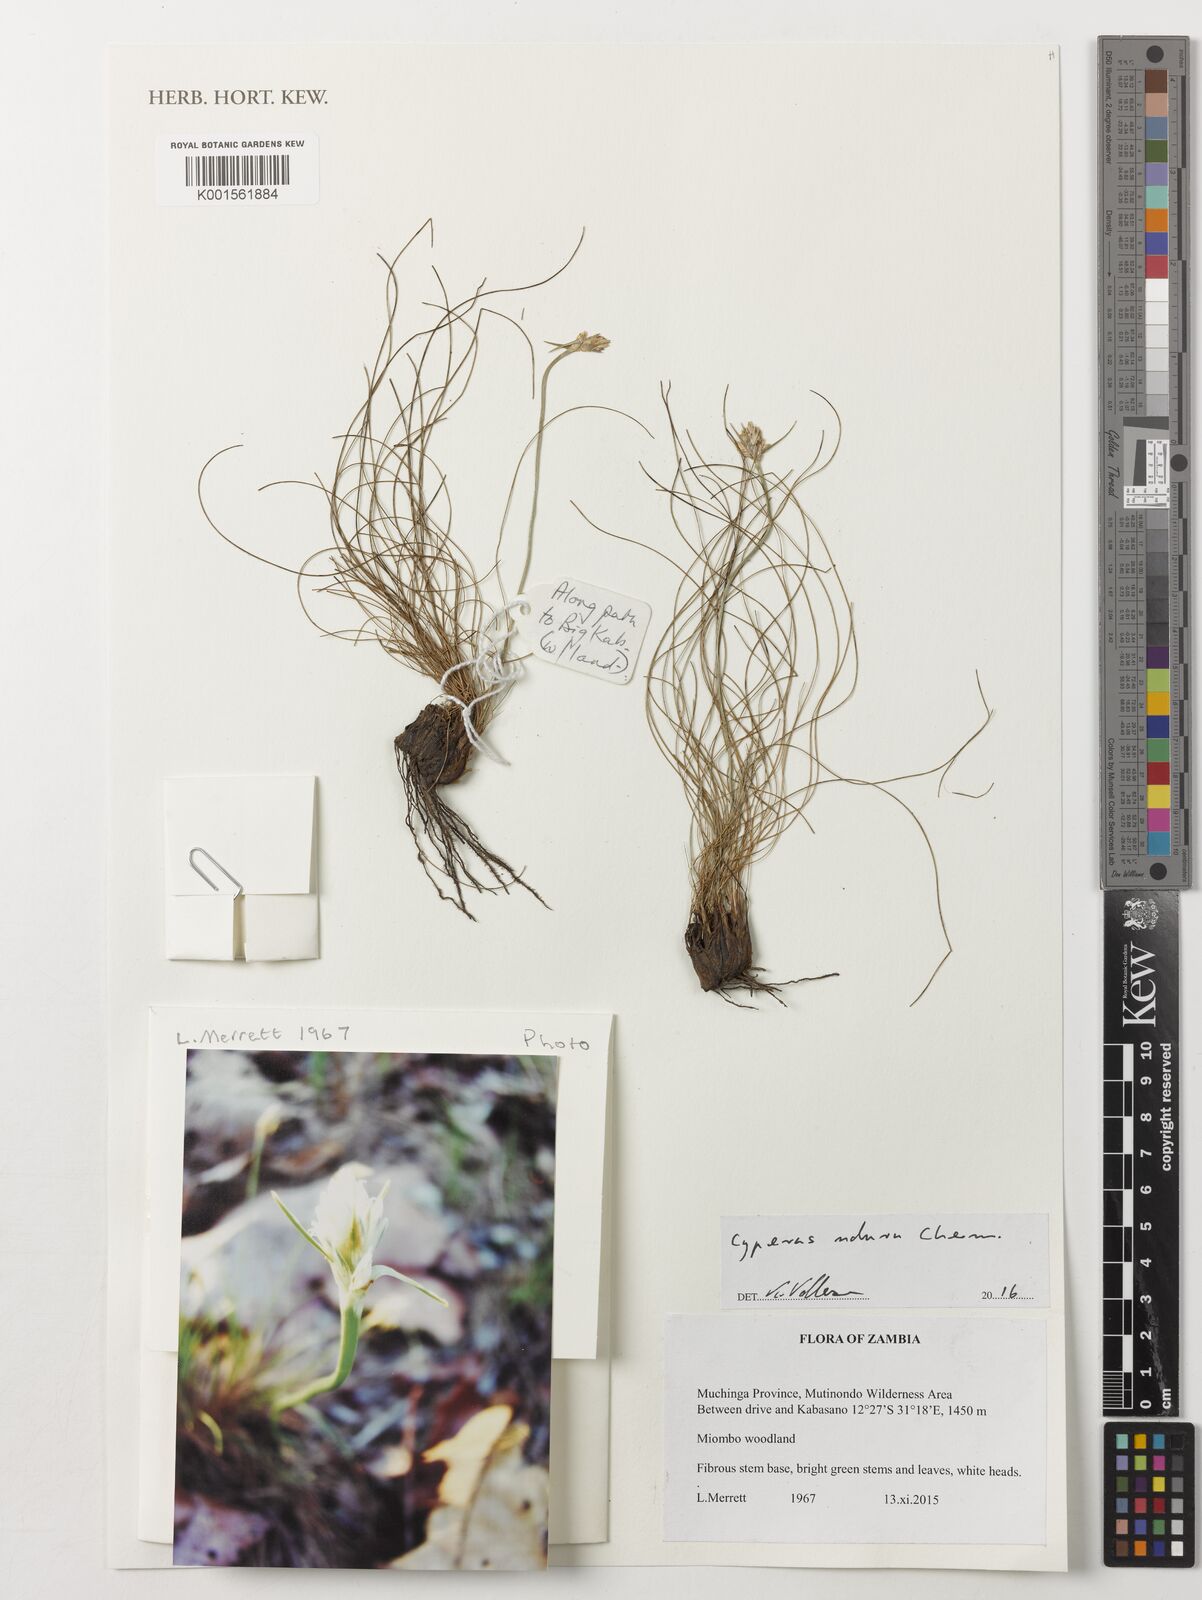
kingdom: Plantae
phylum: Tracheophyta
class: Liliopsida
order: Poales
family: Cyperaceae
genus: Cyperus
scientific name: Cyperus
